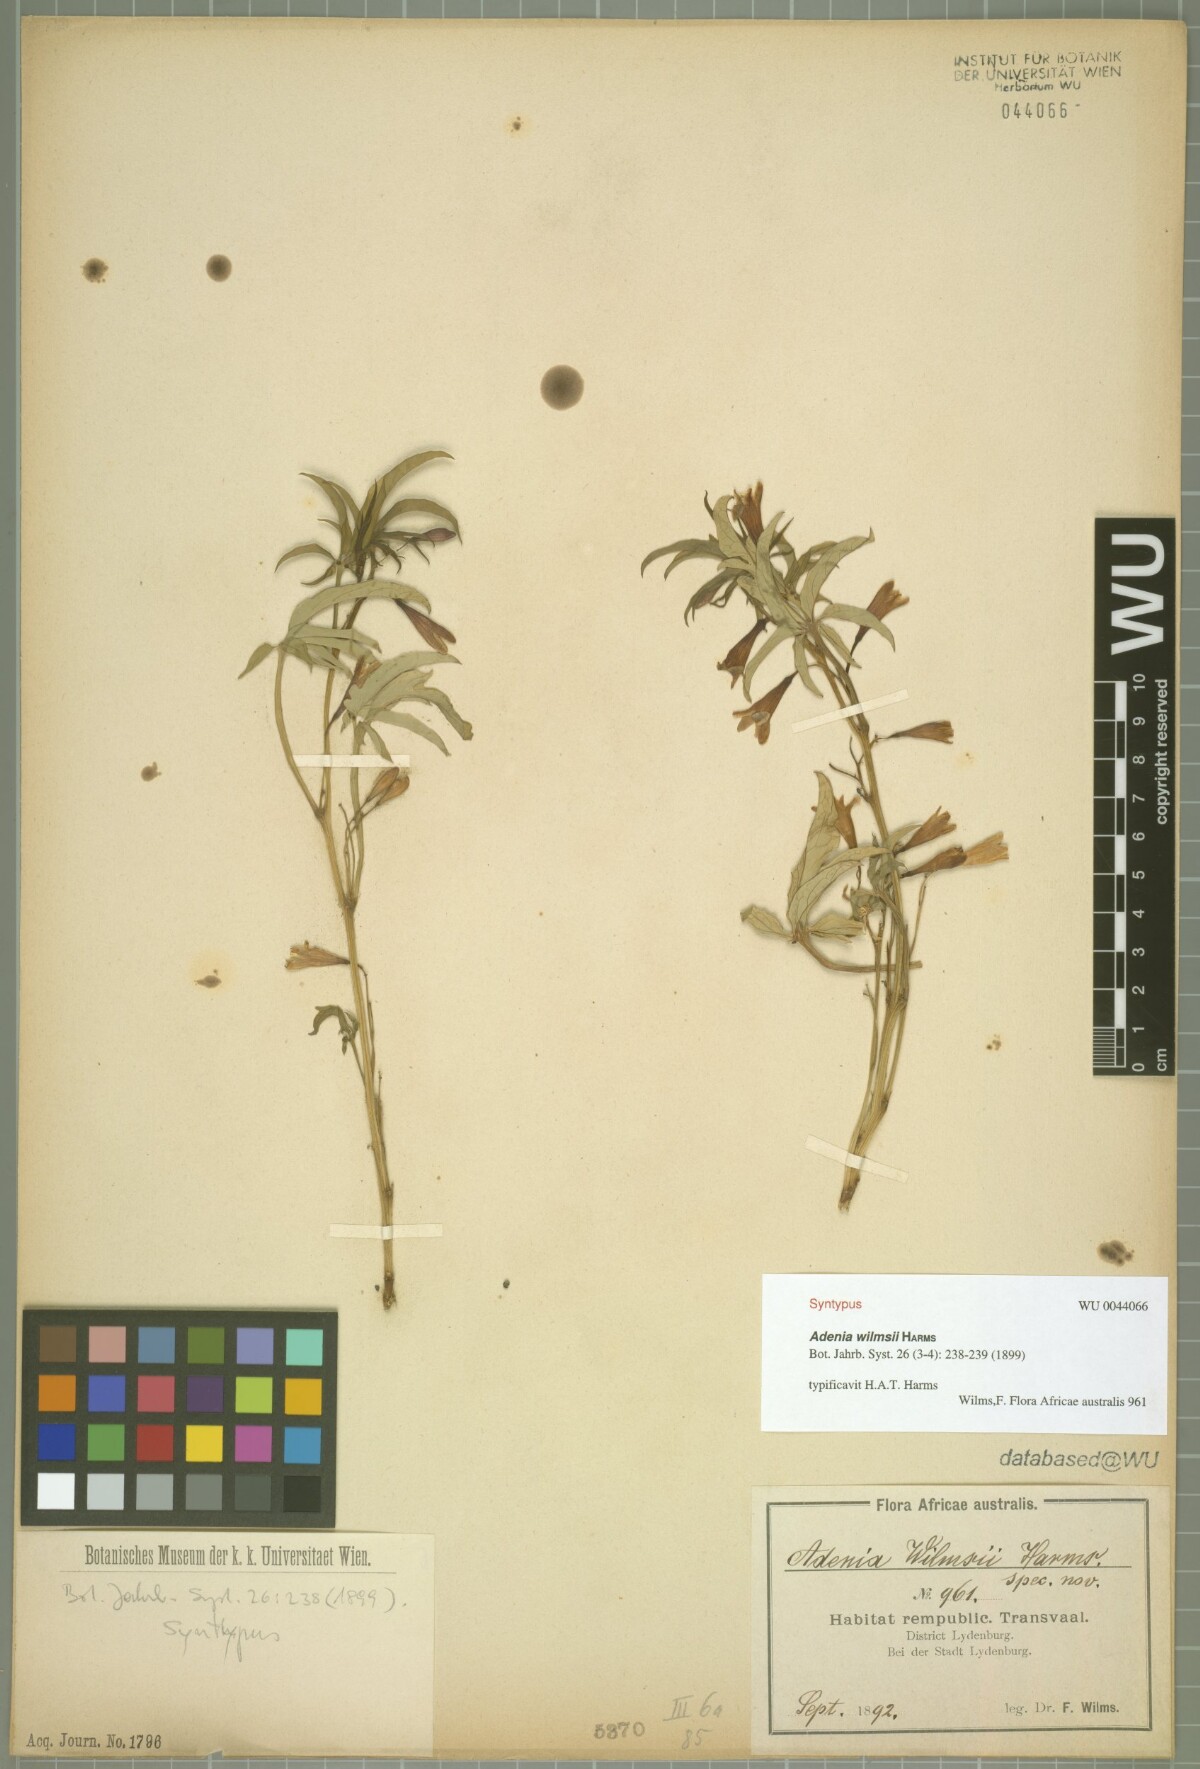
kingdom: Plantae
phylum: Tracheophyta
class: Magnoliopsida
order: Malpighiales
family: Passifloraceae
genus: Adenia
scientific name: Adenia wilmsii
